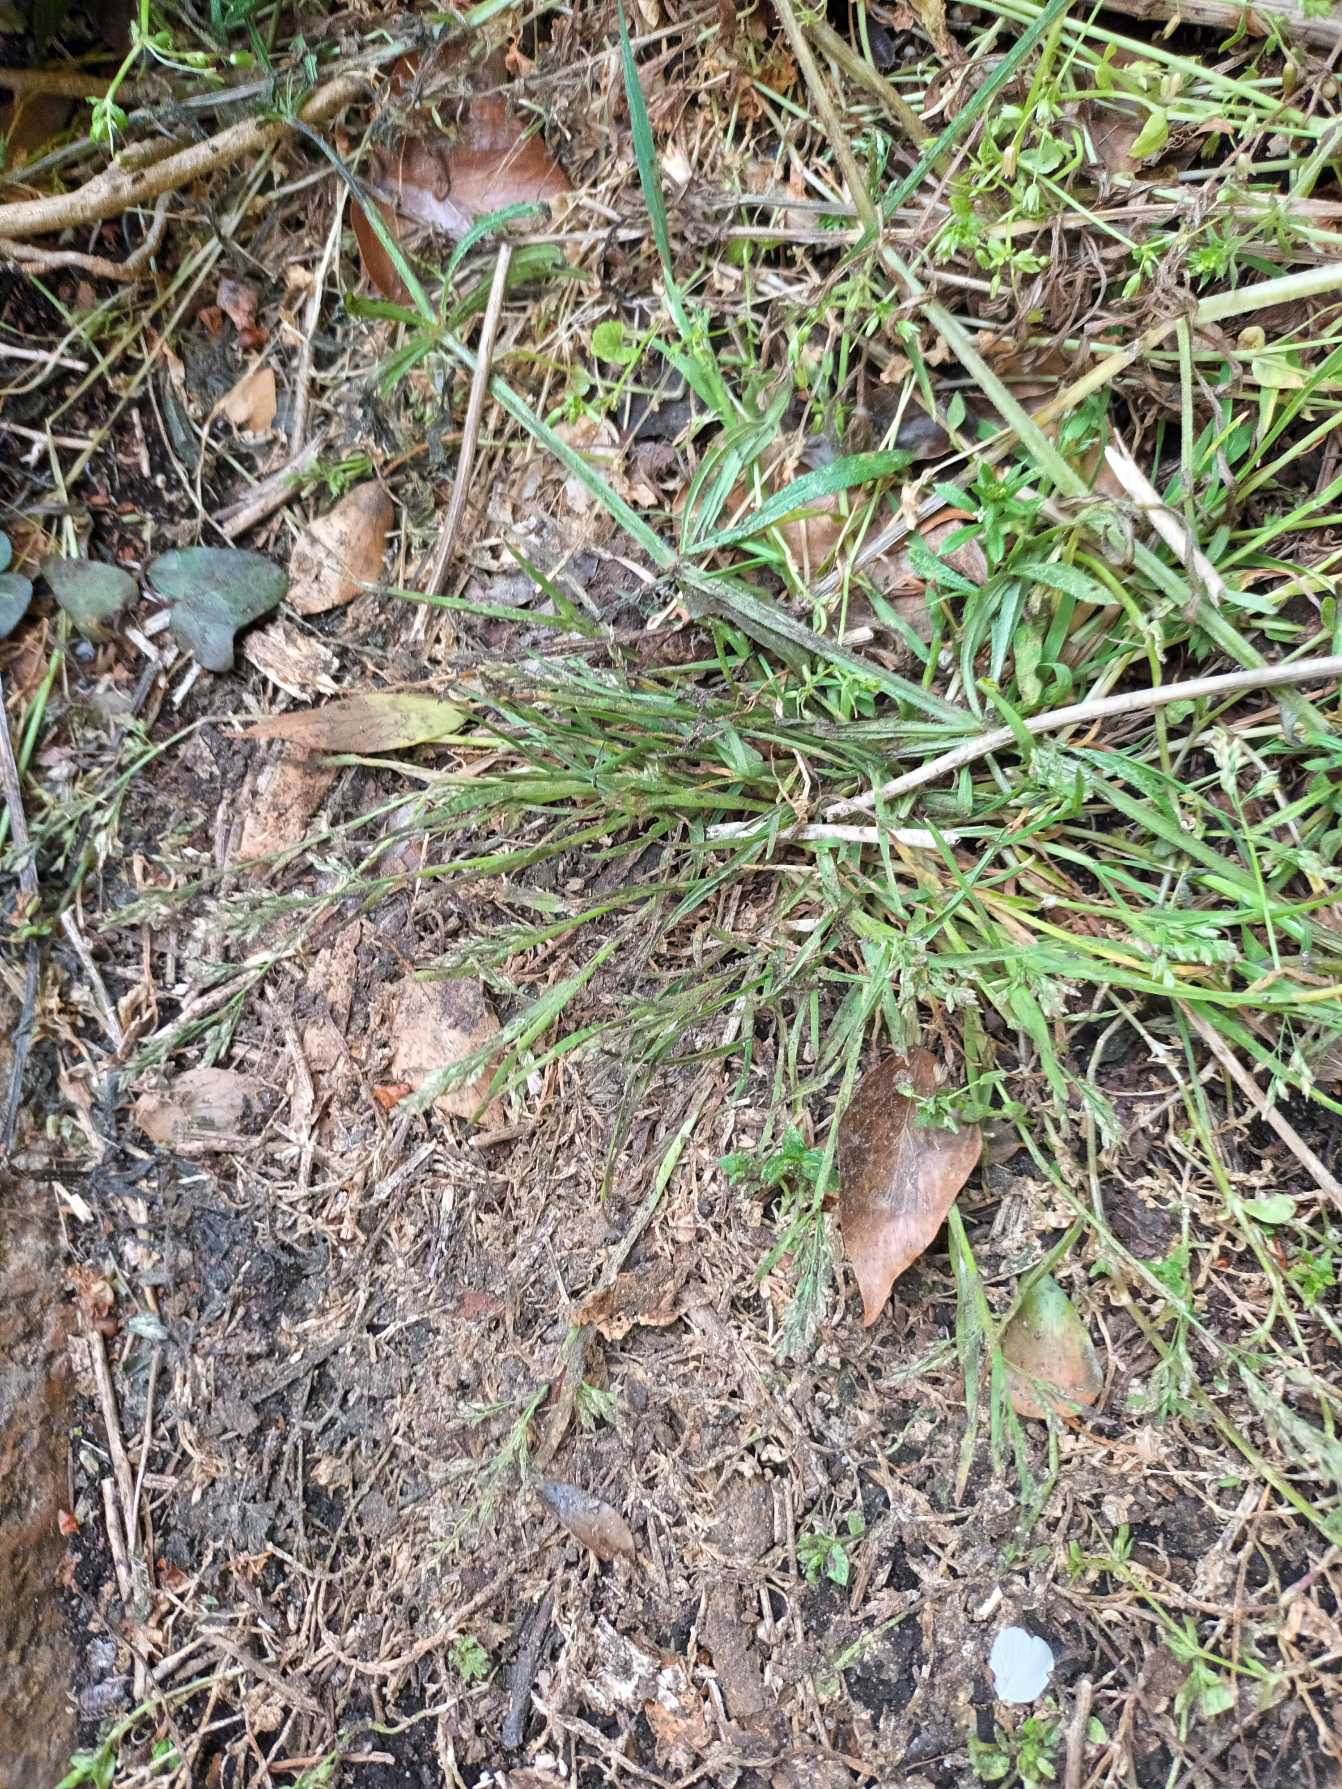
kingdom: Plantae
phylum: Tracheophyta
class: Liliopsida
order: Poales
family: Poaceae
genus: Poa
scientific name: Poa annua
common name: Enårig rapgræs
